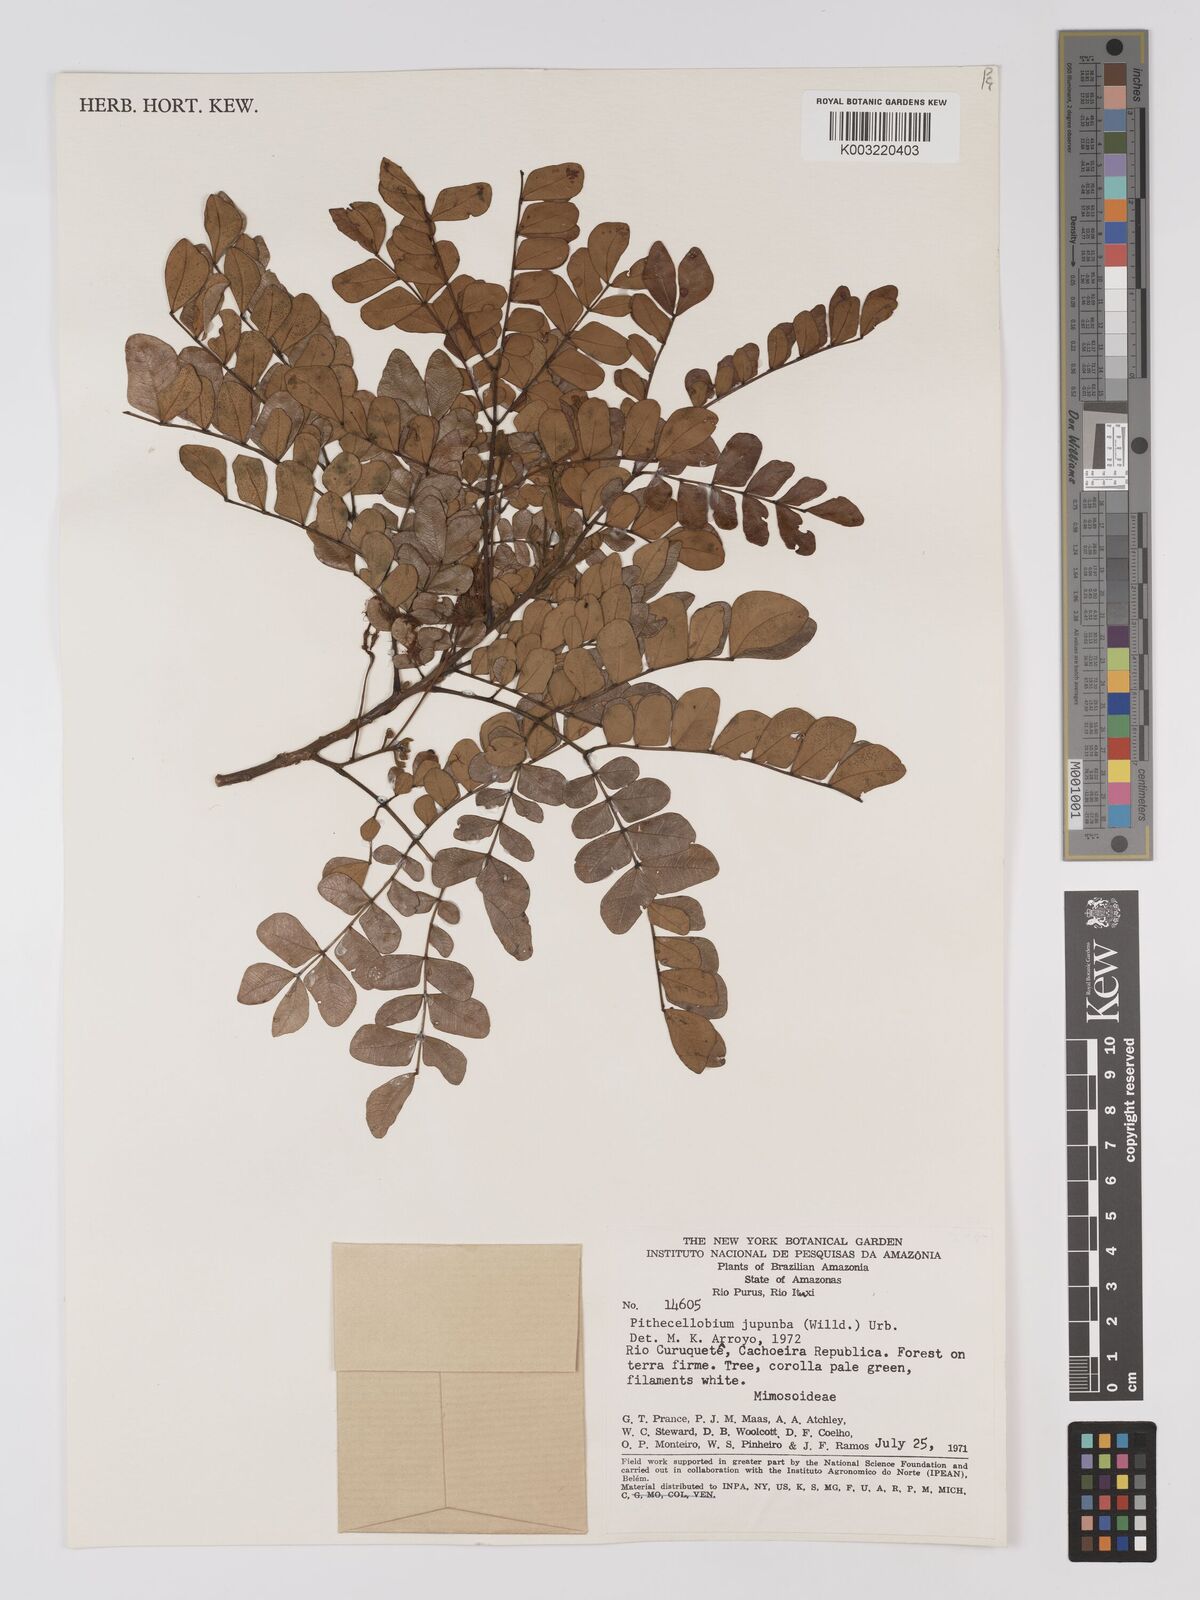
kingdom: Plantae
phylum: Tracheophyta
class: Magnoliopsida
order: Fabales
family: Fabaceae
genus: Jupunba
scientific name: Jupunba trapezifolia
